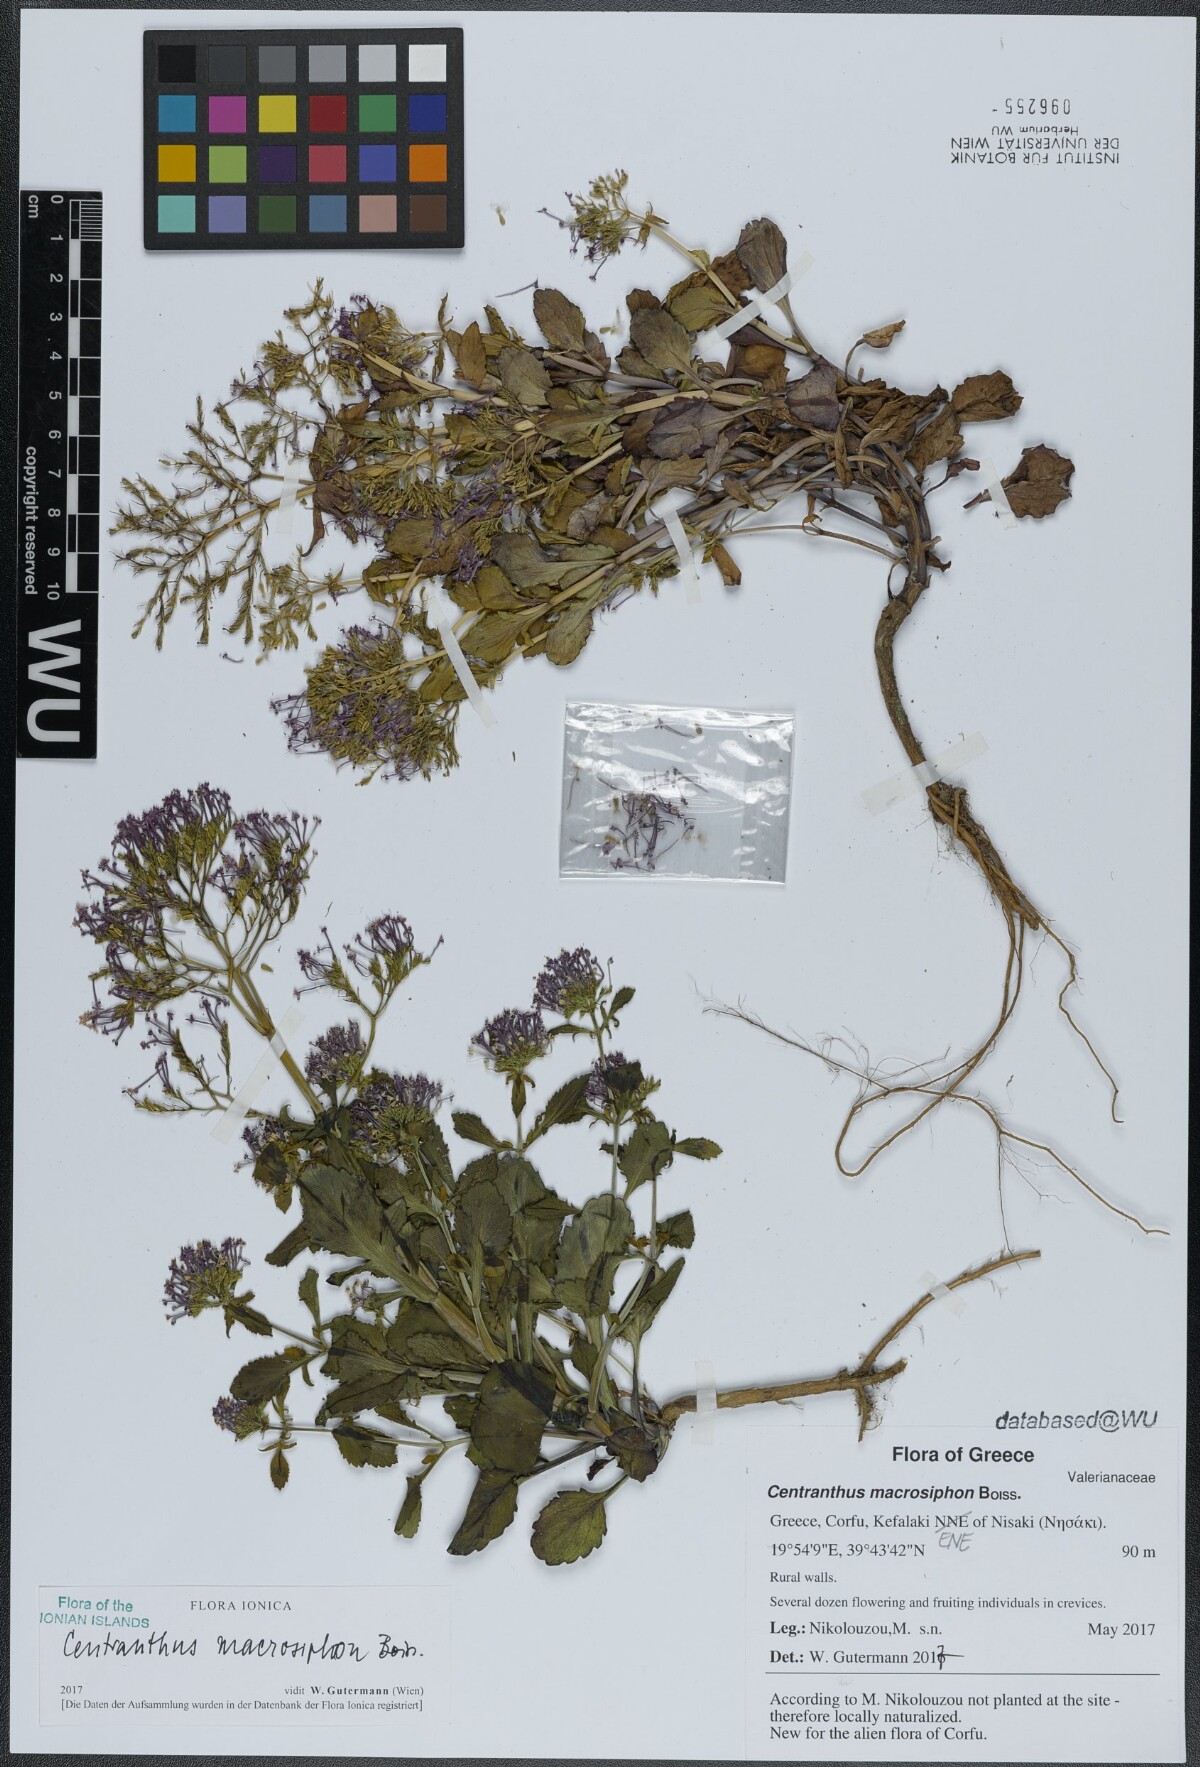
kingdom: Plantae
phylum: Tracheophyta
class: Magnoliopsida
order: Dipsacales
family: Caprifoliaceae
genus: Centranthus
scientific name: Centranthus macrosiphon
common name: Spanish-valerian
